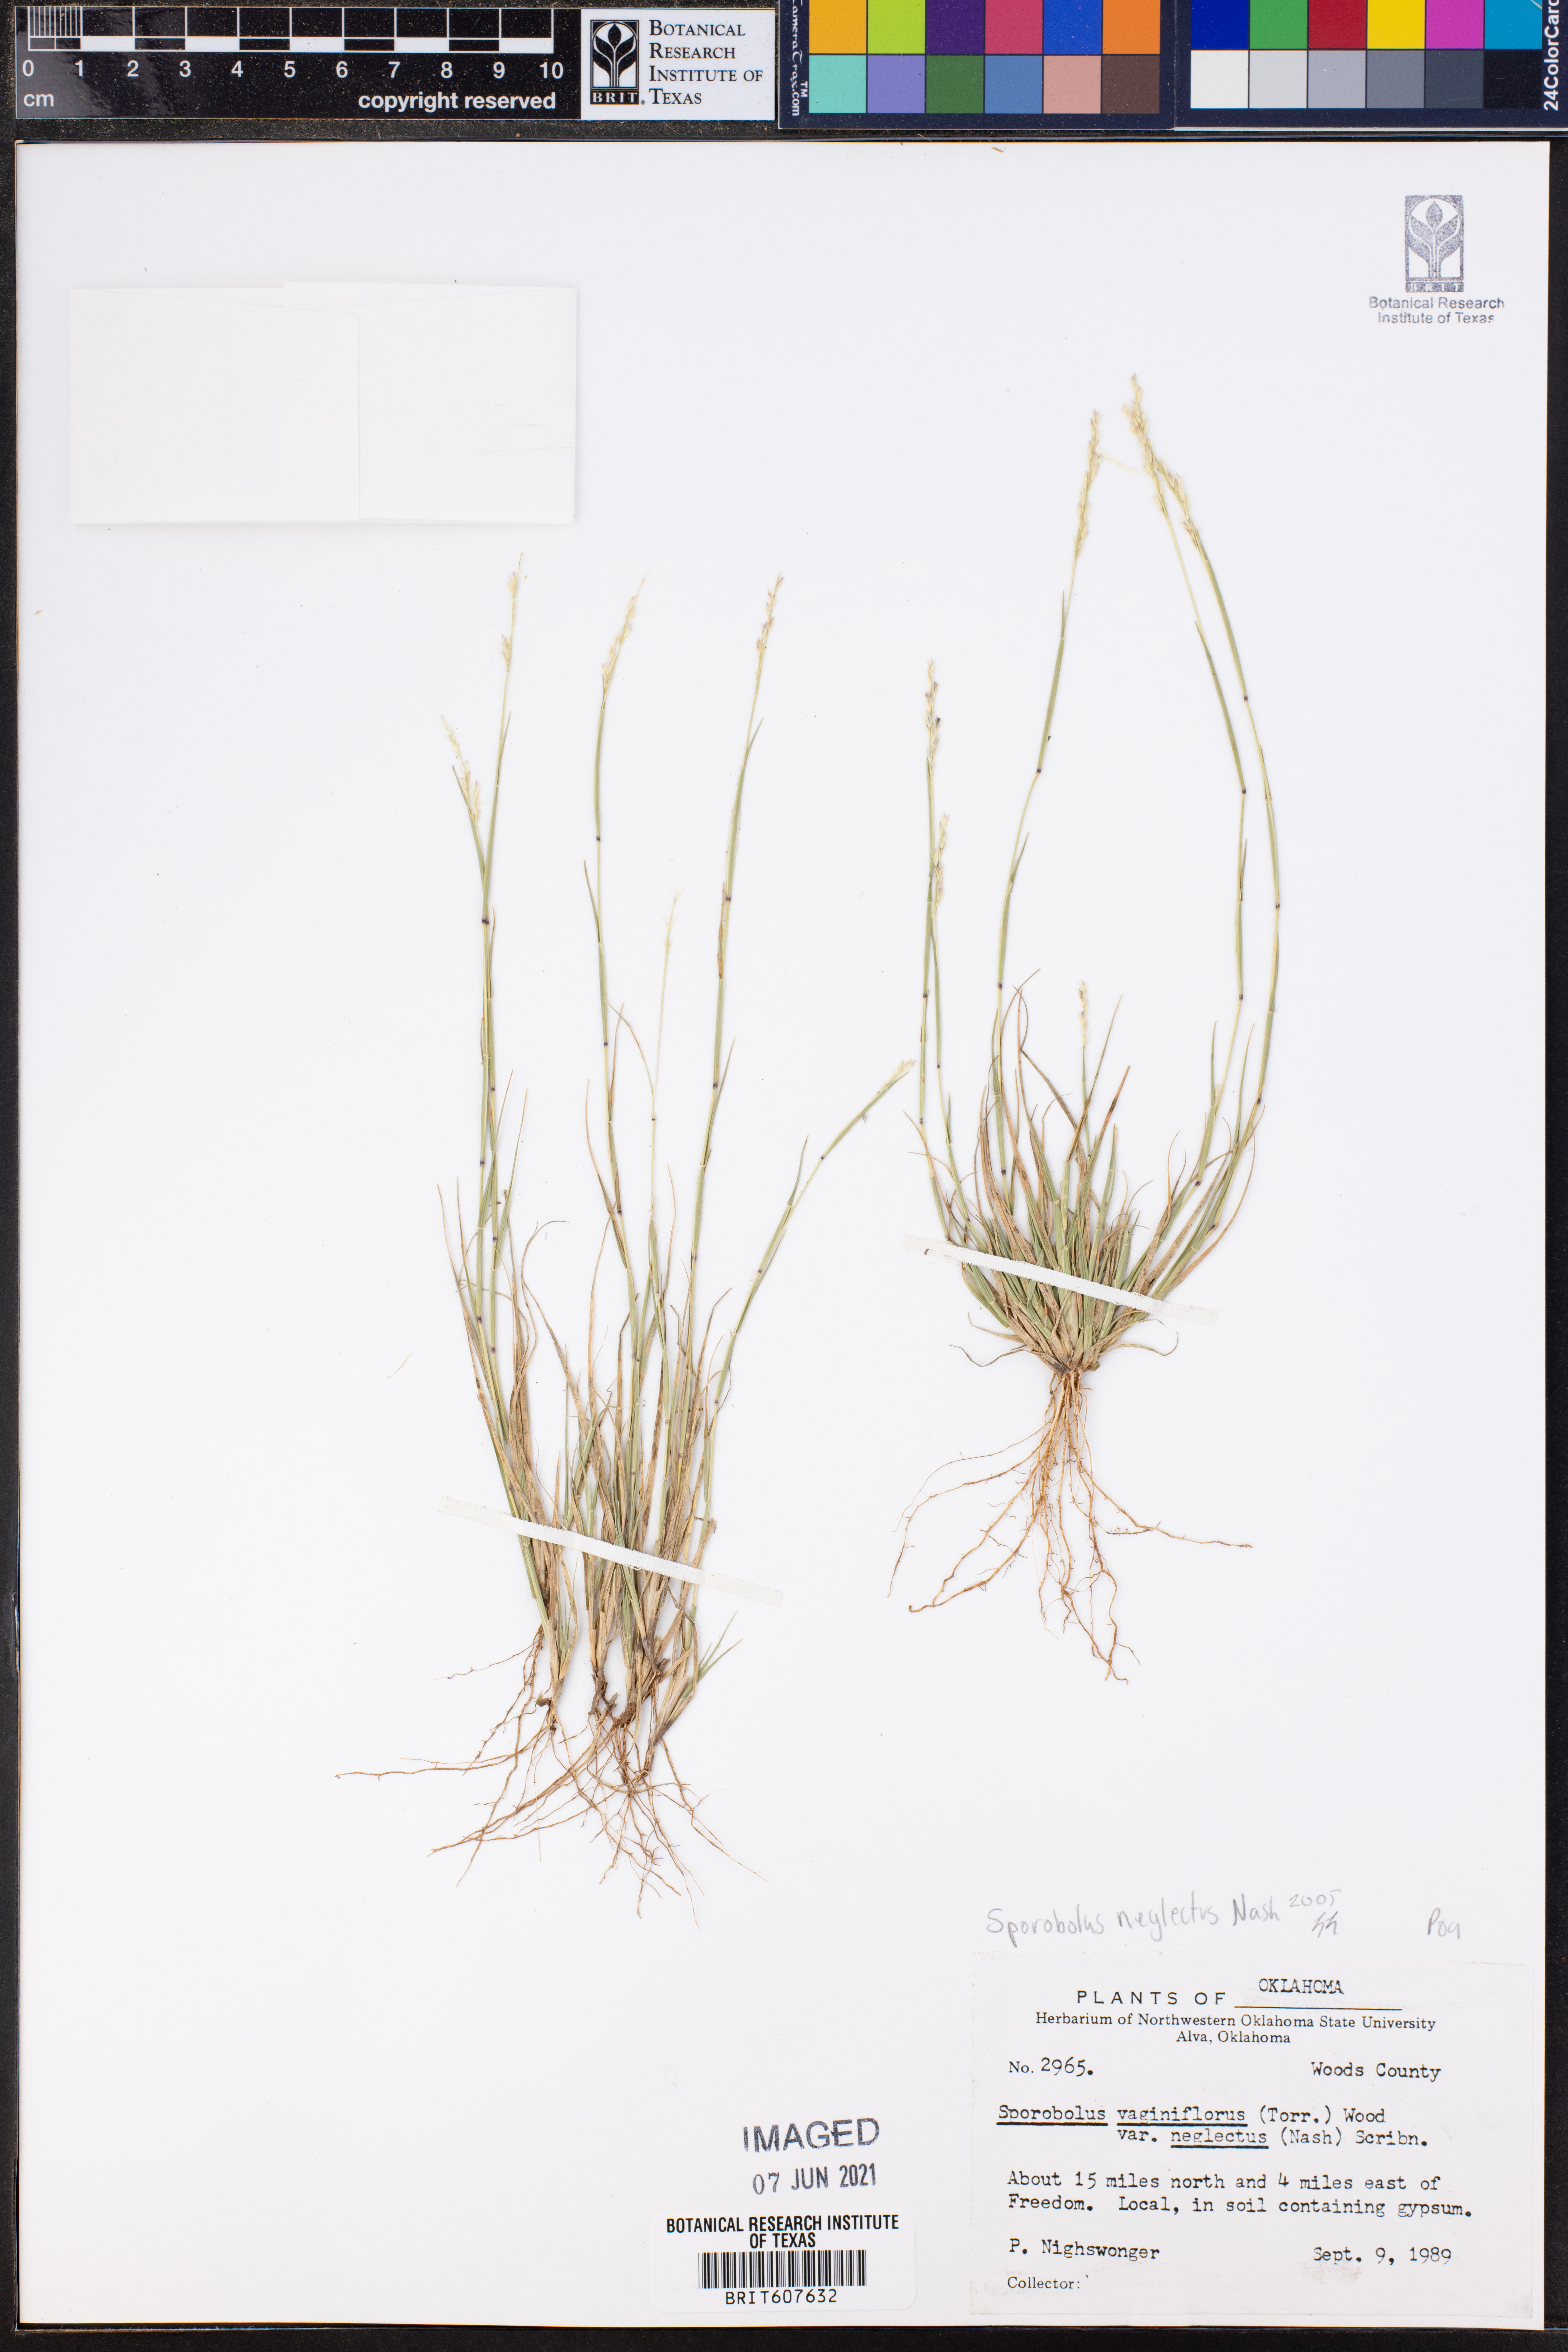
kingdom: Plantae
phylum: Tracheophyta
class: Liliopsida
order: Poales
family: Poaceae
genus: Sporobolus
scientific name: Sporobolus neglectus
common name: Annual dropseed
